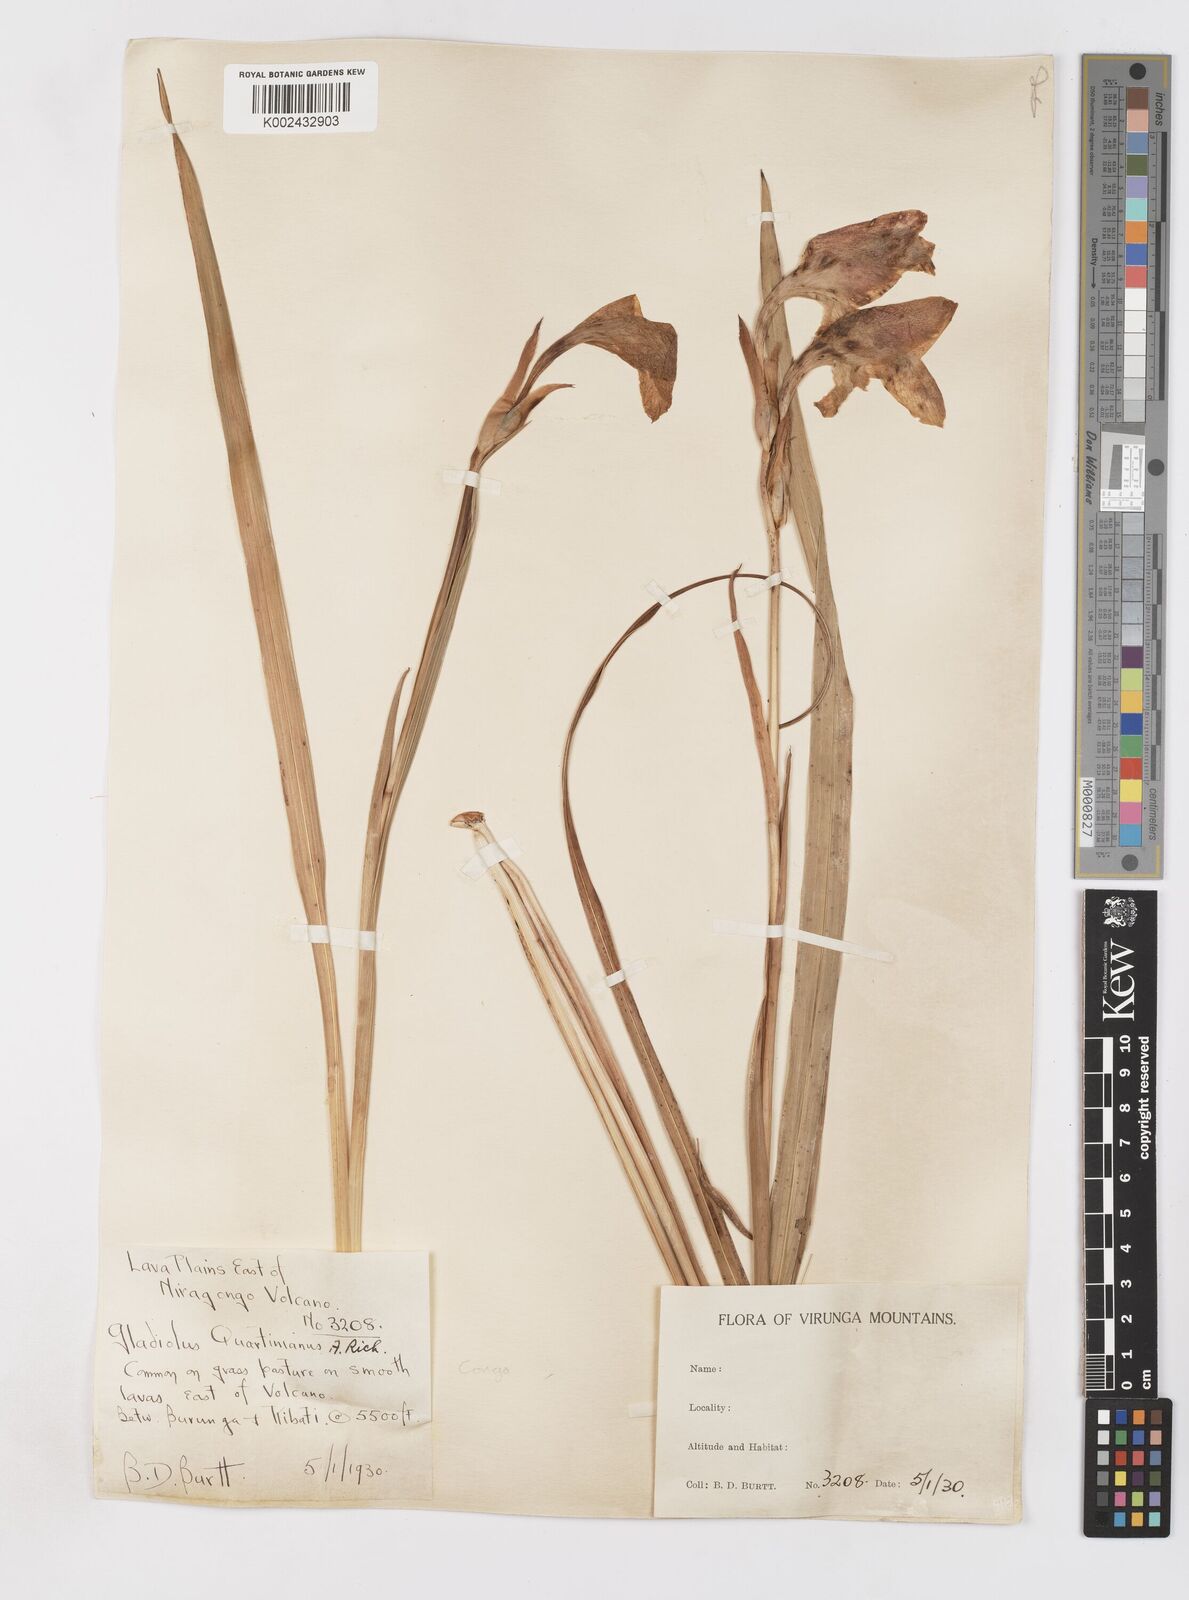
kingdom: Plantae
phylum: Tracheophyta
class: Liliopsida
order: Asparagales
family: Iridaceae
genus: Gladiolus
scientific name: Gladiolus dalenii
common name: Cornflag
